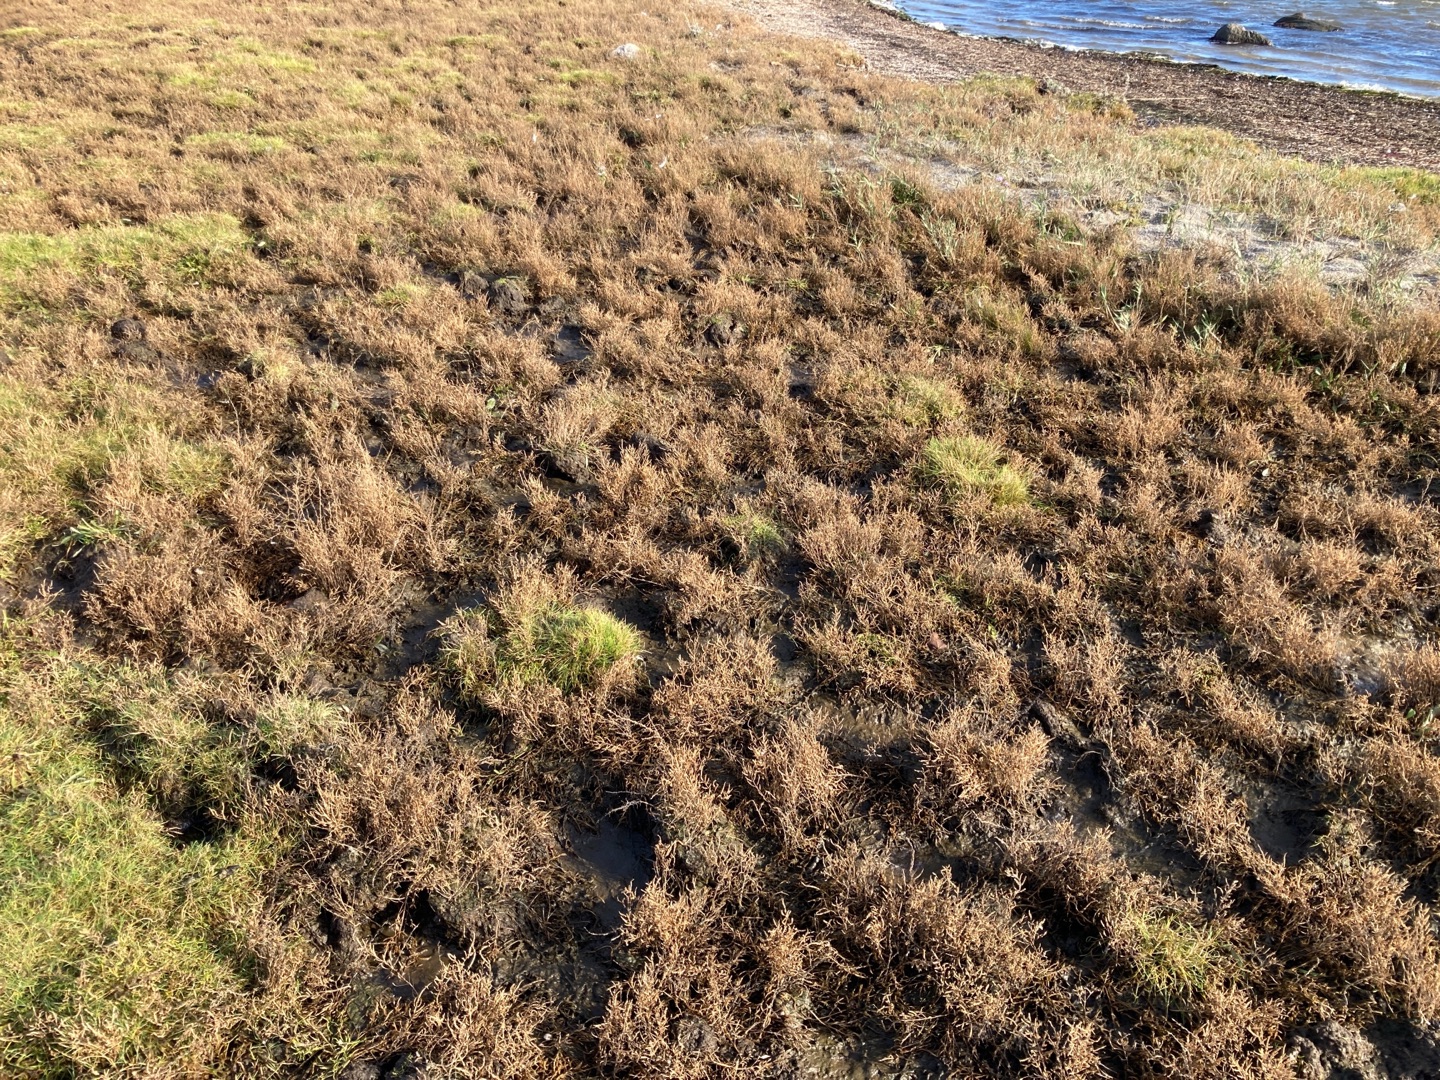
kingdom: Plantae
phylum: Tracheophyta
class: Magnoliopsida
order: Caryophyllales
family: Amaranthaceae
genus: Salicornia
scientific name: Salicornia europaea
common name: Almindelig salturt
